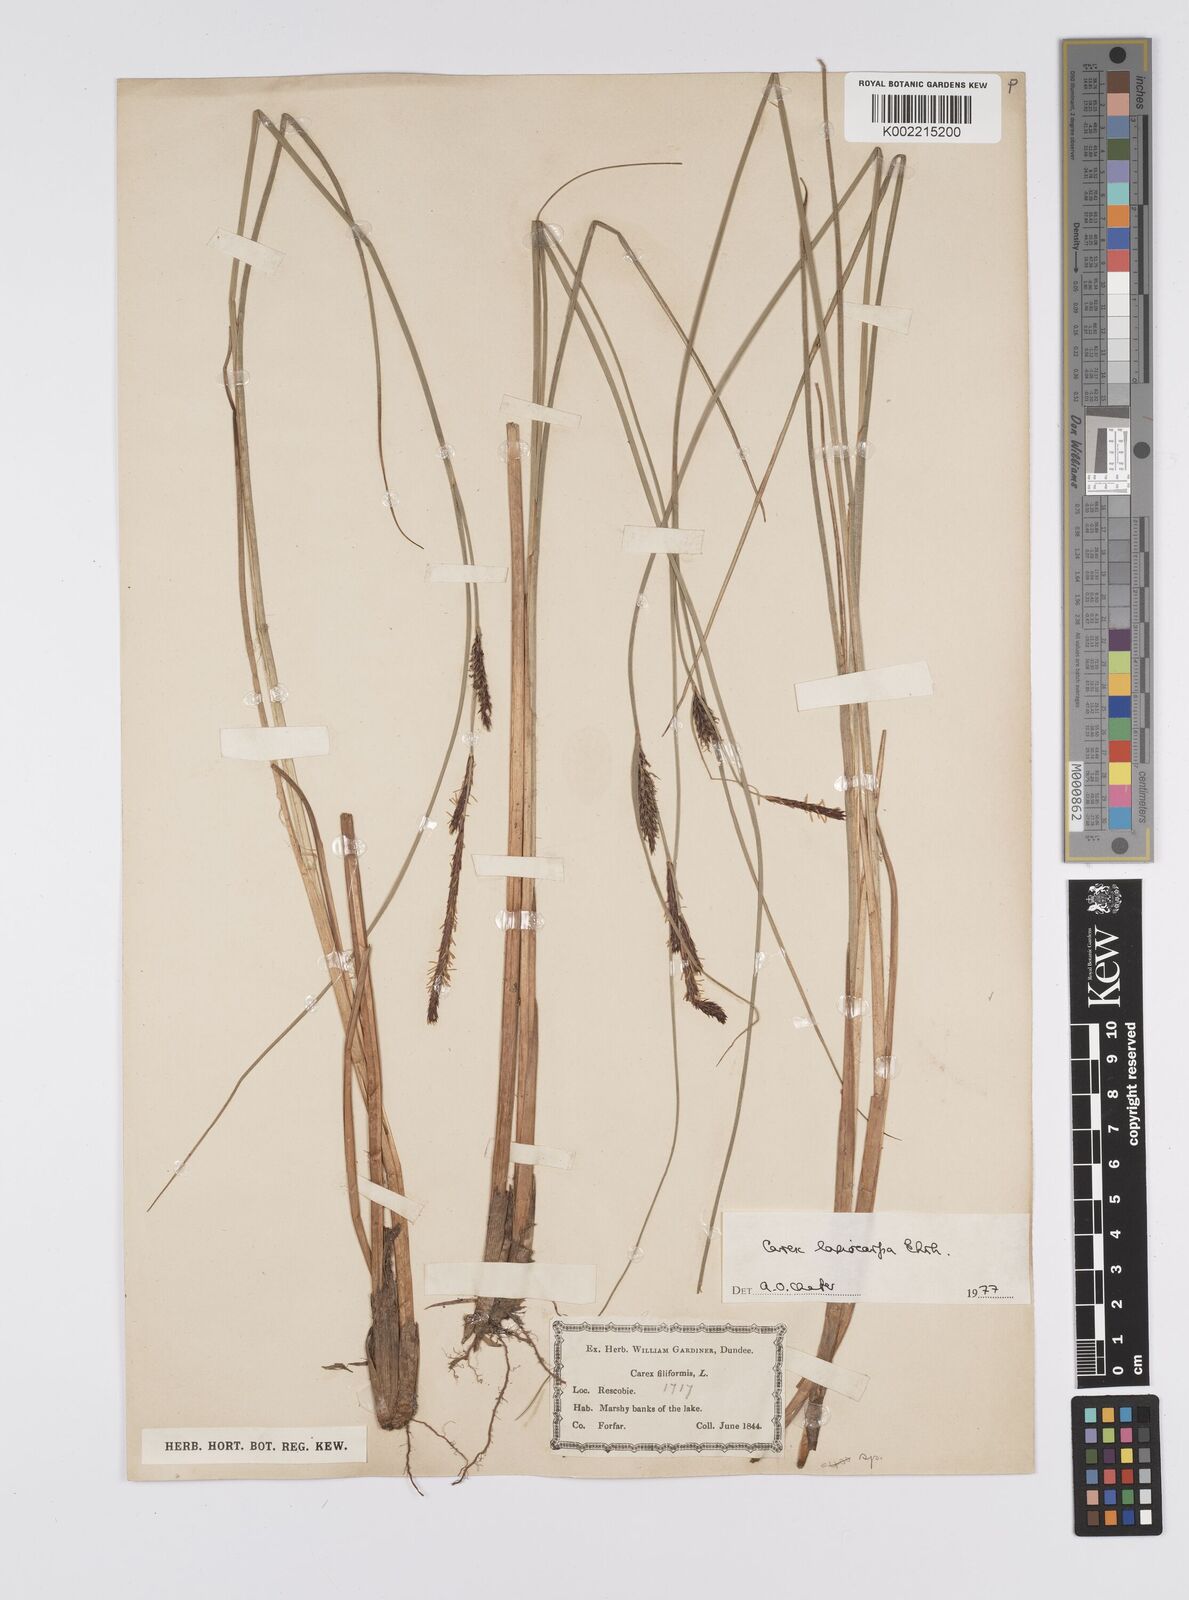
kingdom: Plantae
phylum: Tracheophyta
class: Liliopsida
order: Poales
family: Cyperaceae
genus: Carex
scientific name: Carex lasiocarpa
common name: Slender sedge
